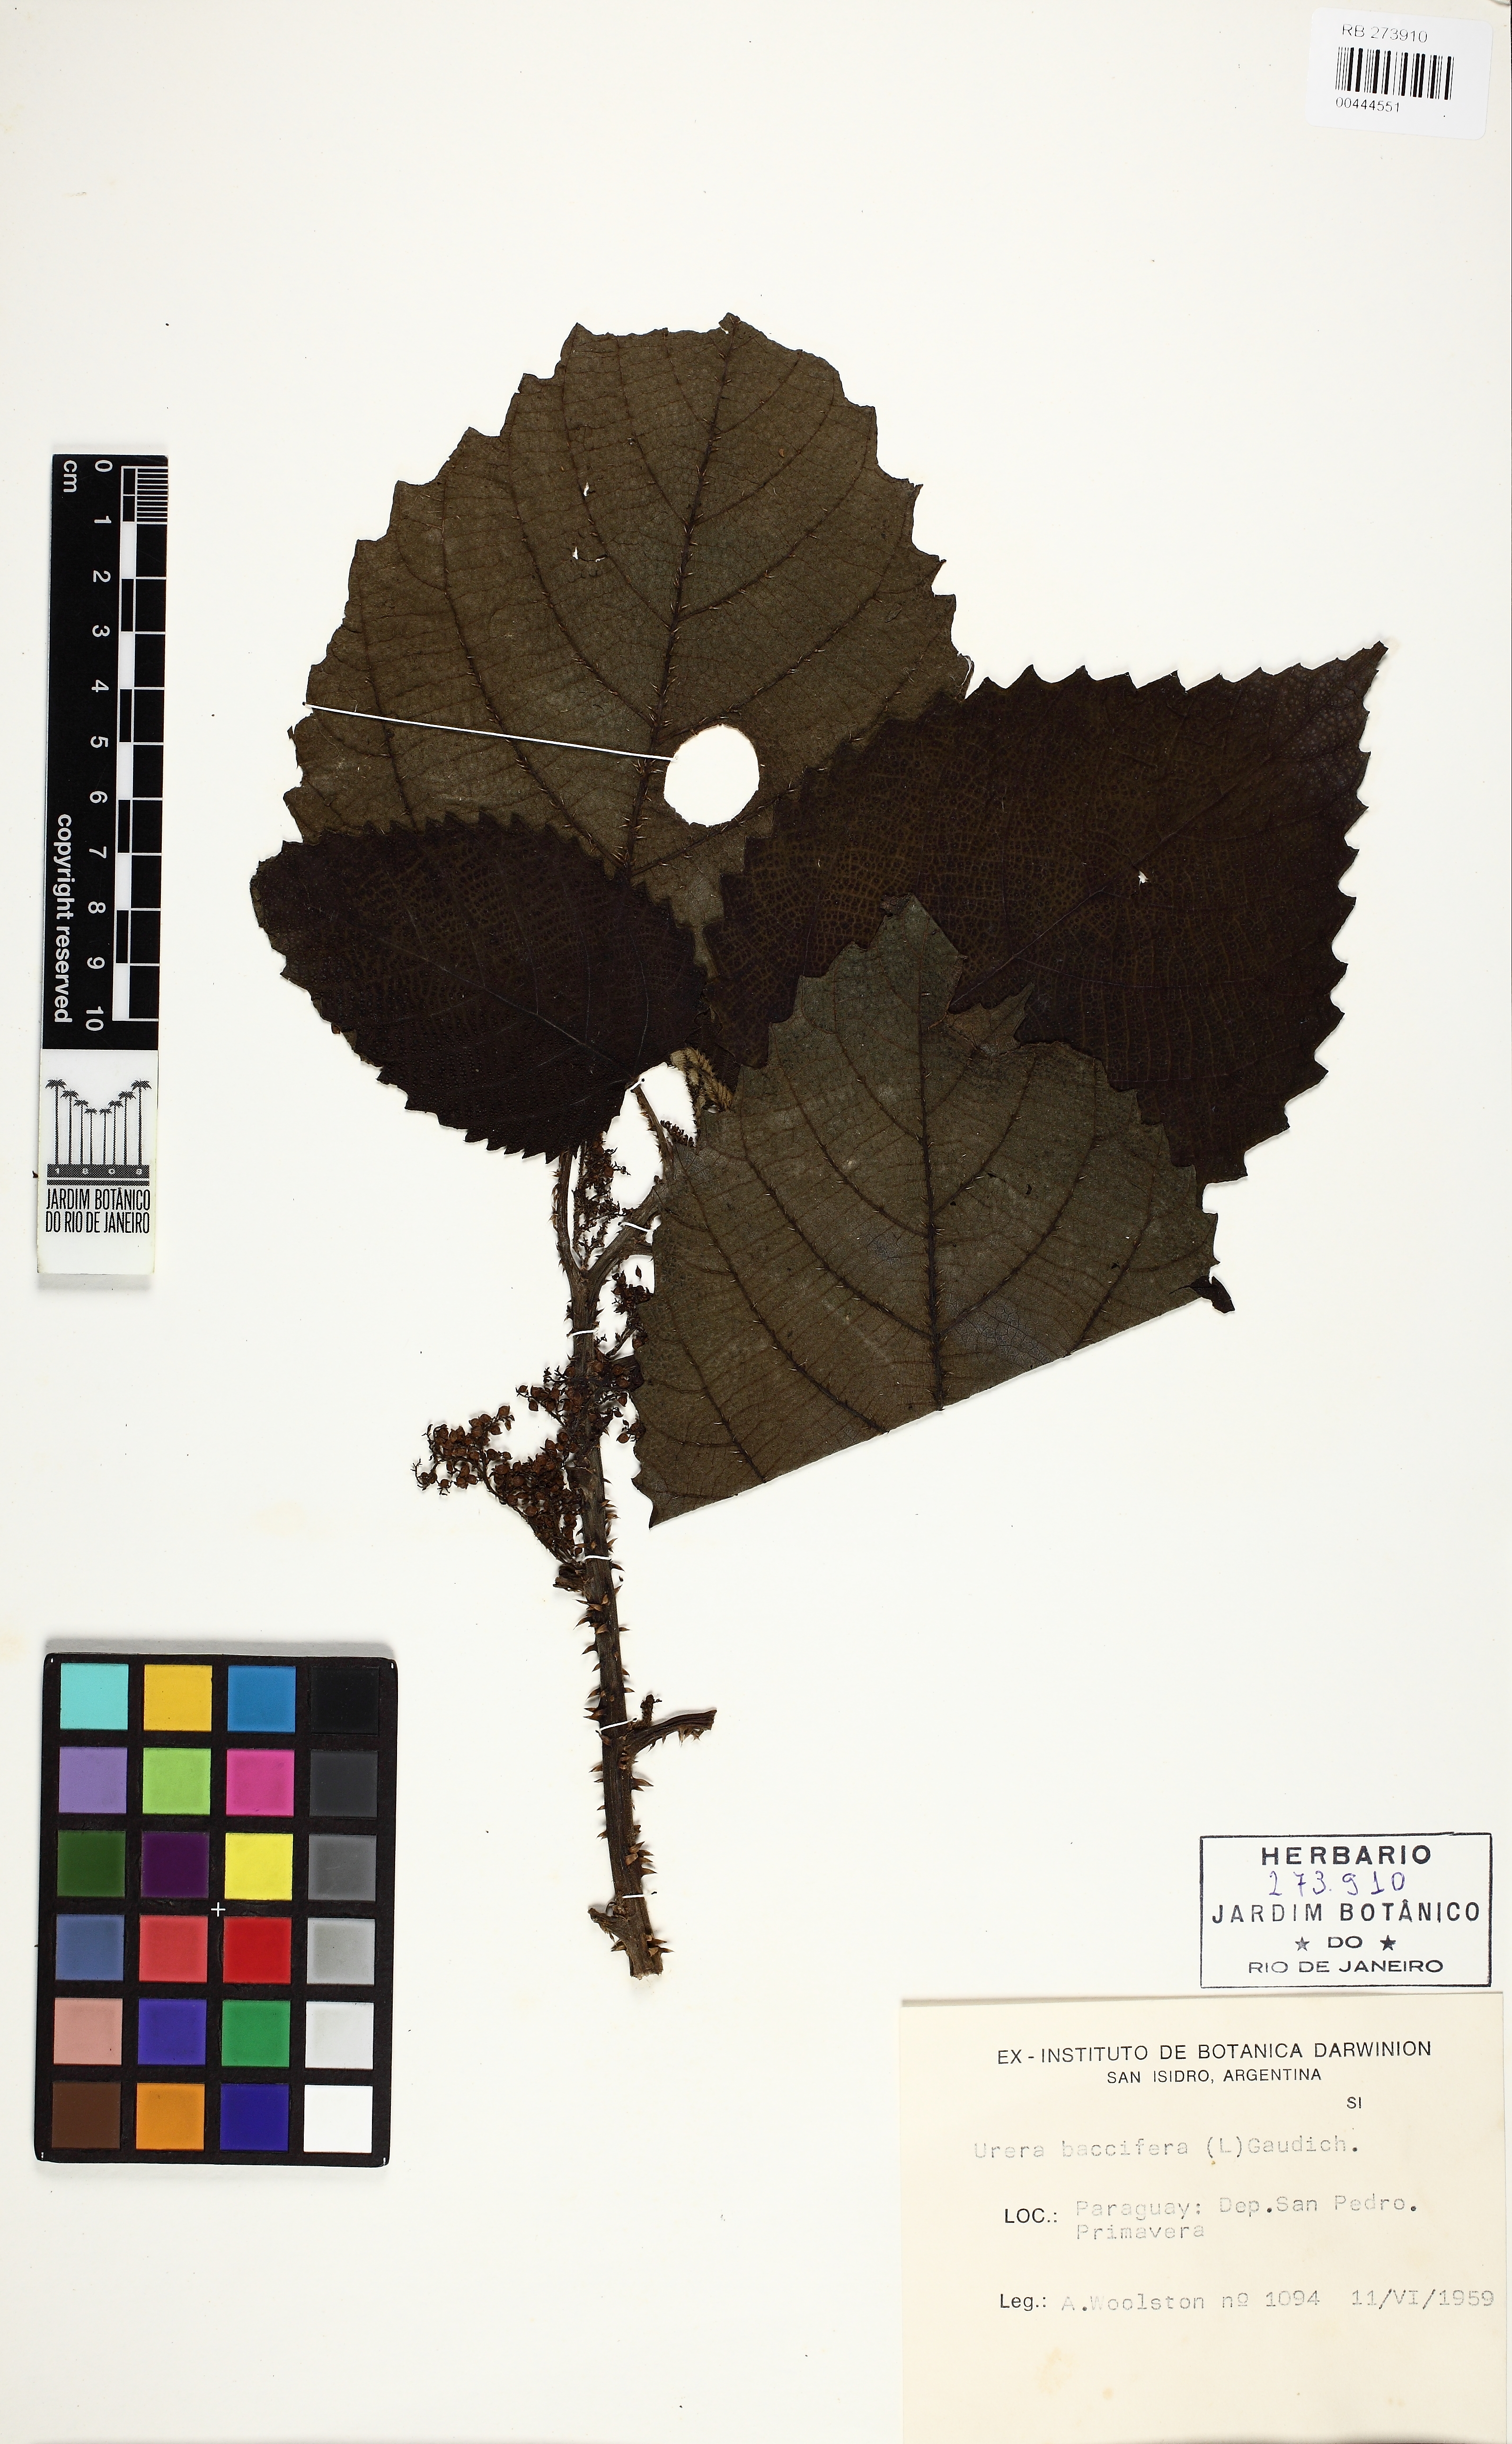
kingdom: Plantae
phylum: Tracheophyta
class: Magnoliopsida
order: Rosales
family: Urticaceae
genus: Urera
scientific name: Urera baccifera
